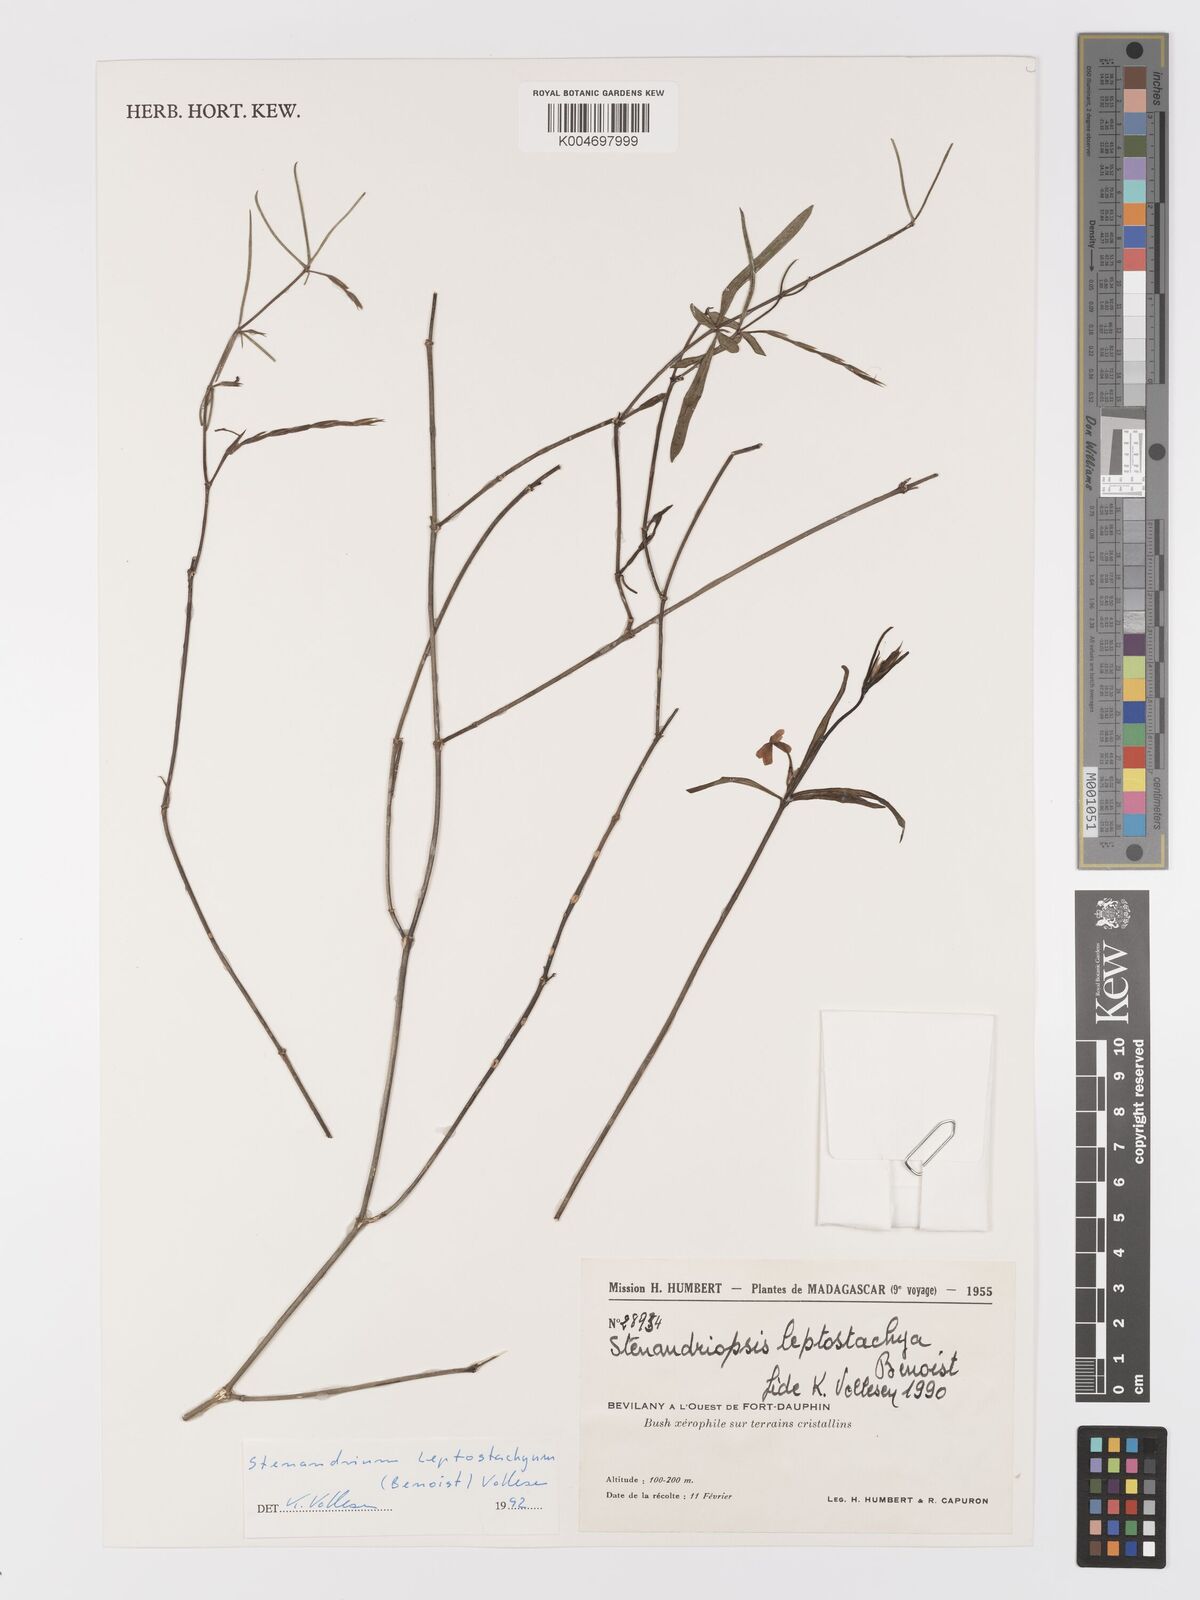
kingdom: Plantae
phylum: Tracheophyta
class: Magnoliopsida
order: Lamiales
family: Acanthaceae
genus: Stenandriopsis
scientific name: Stenandriopsis leptostachys
